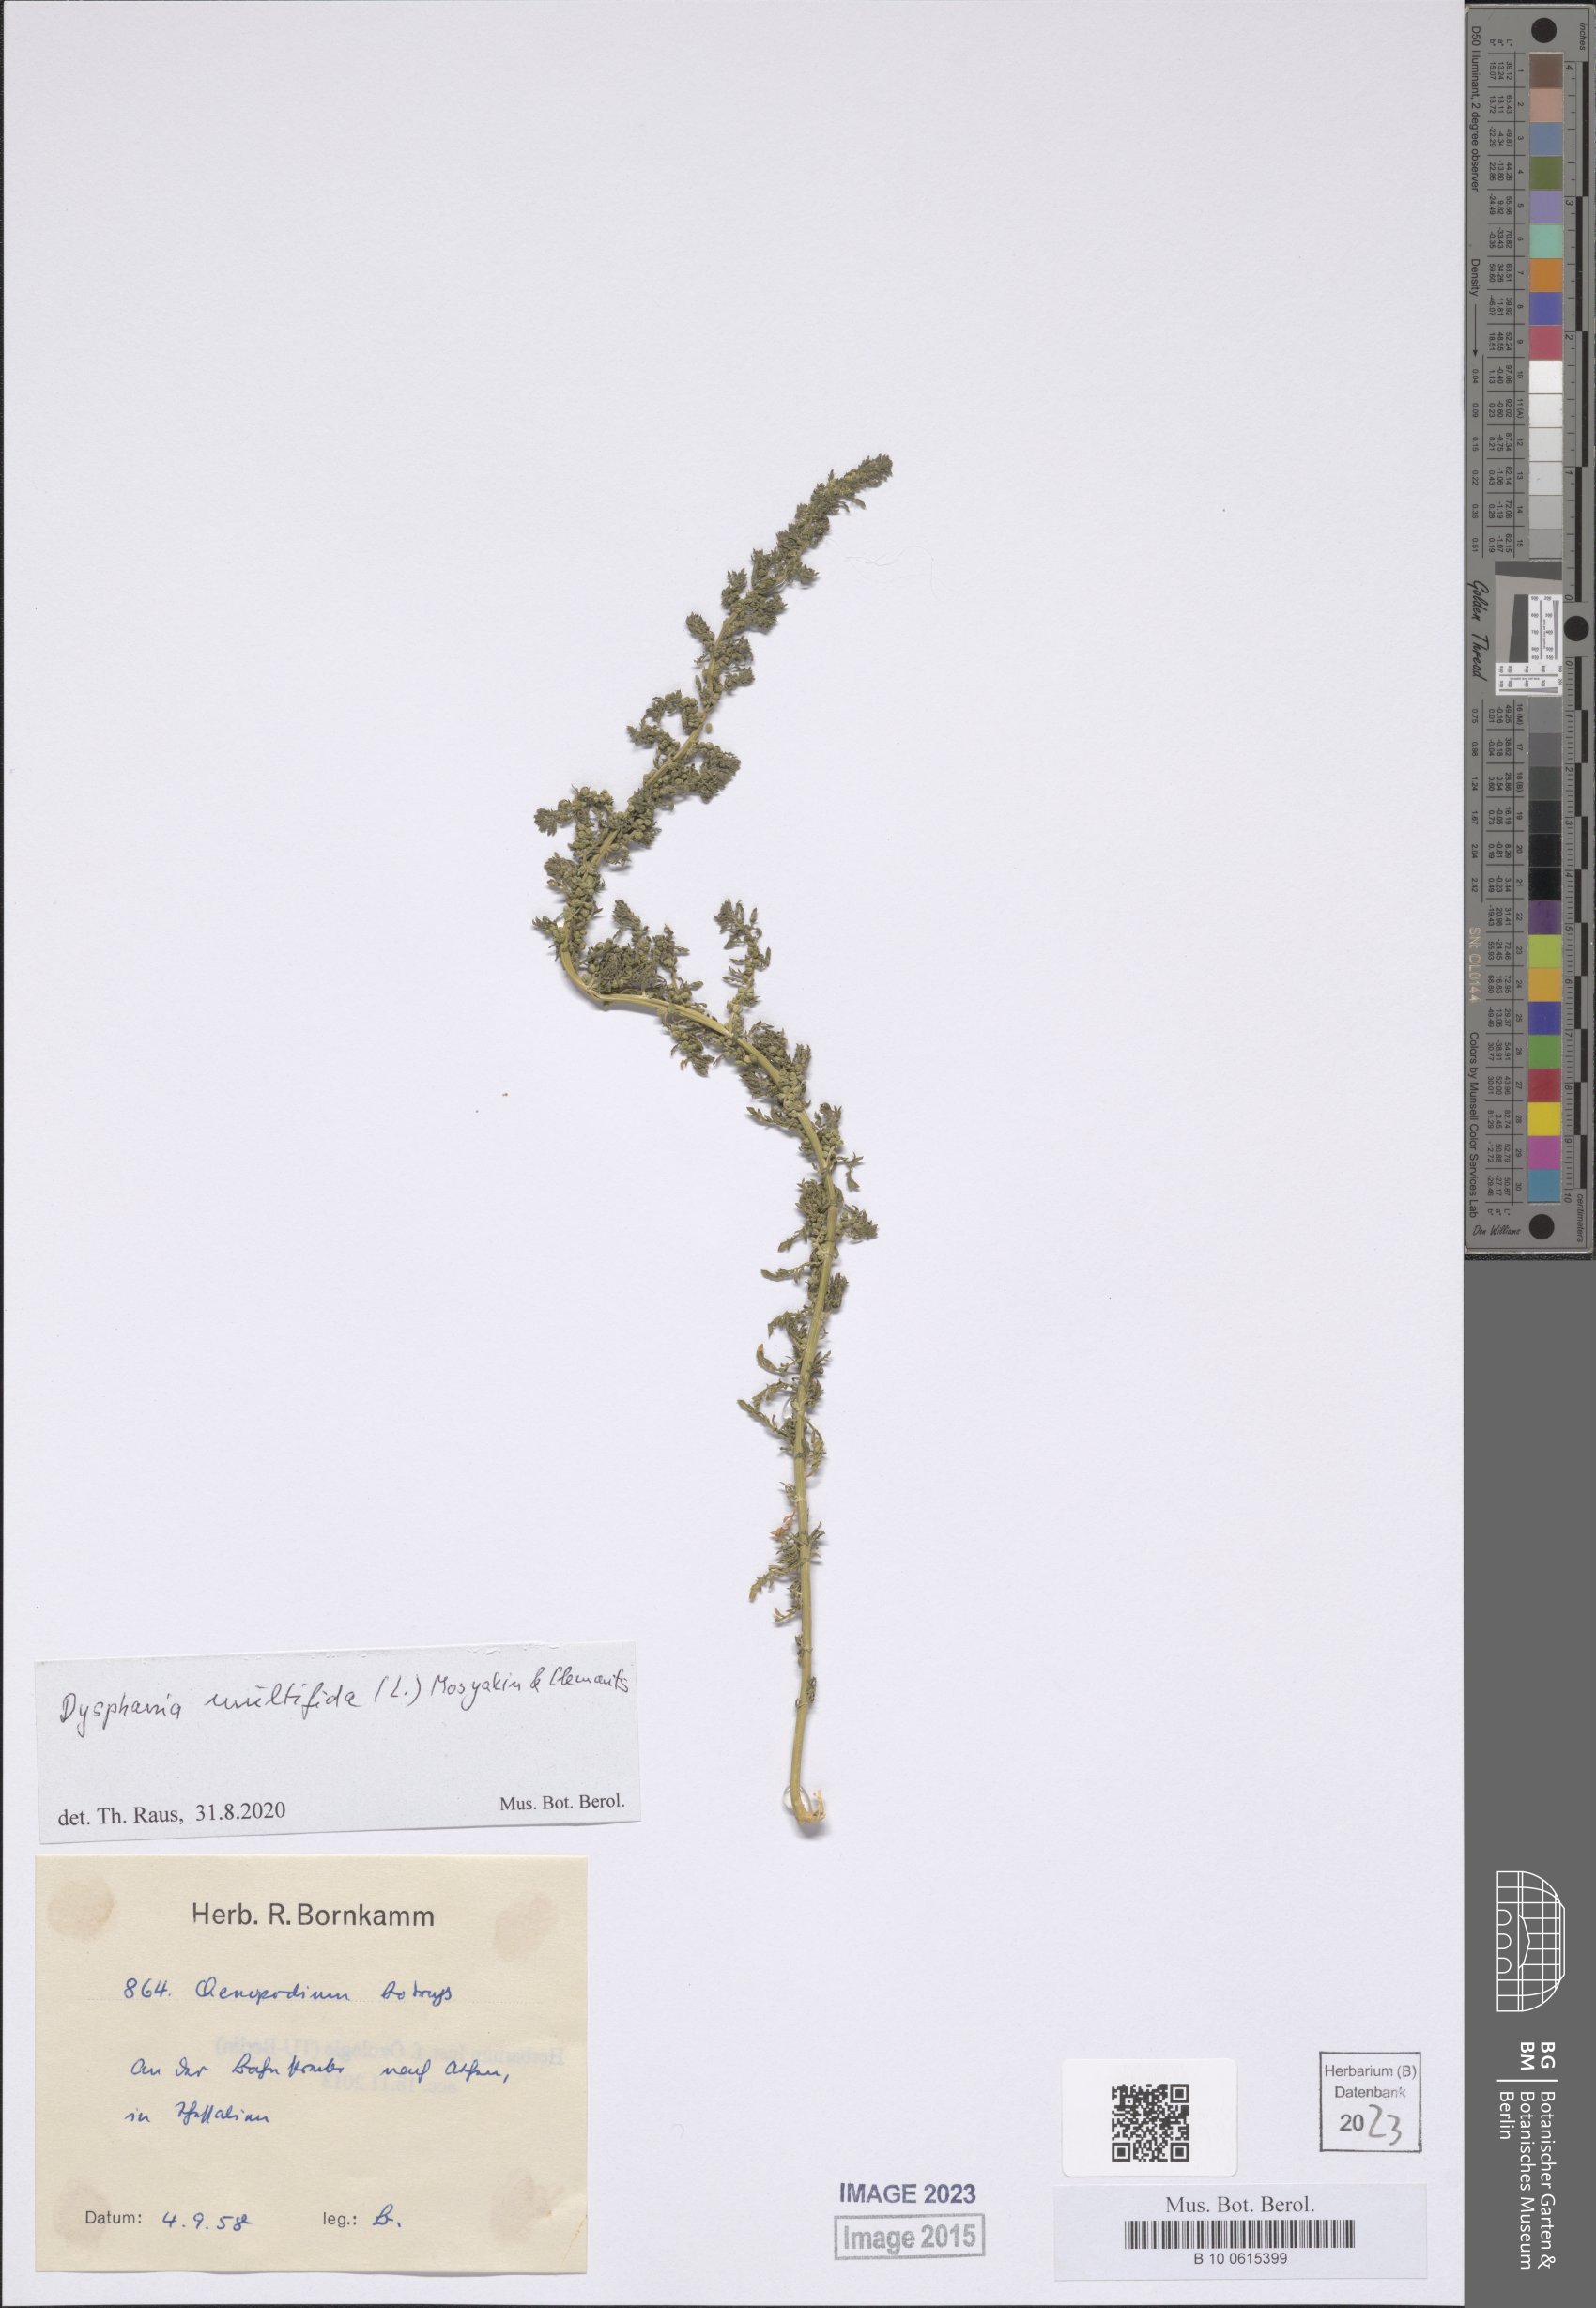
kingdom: Plantae
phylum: Tracheophyta
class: Magnoliopsida
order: Caryophyllales
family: Amaranthaceae
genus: Dysphania
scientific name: Dysphania multifida
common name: Cutleaf goosefoot
